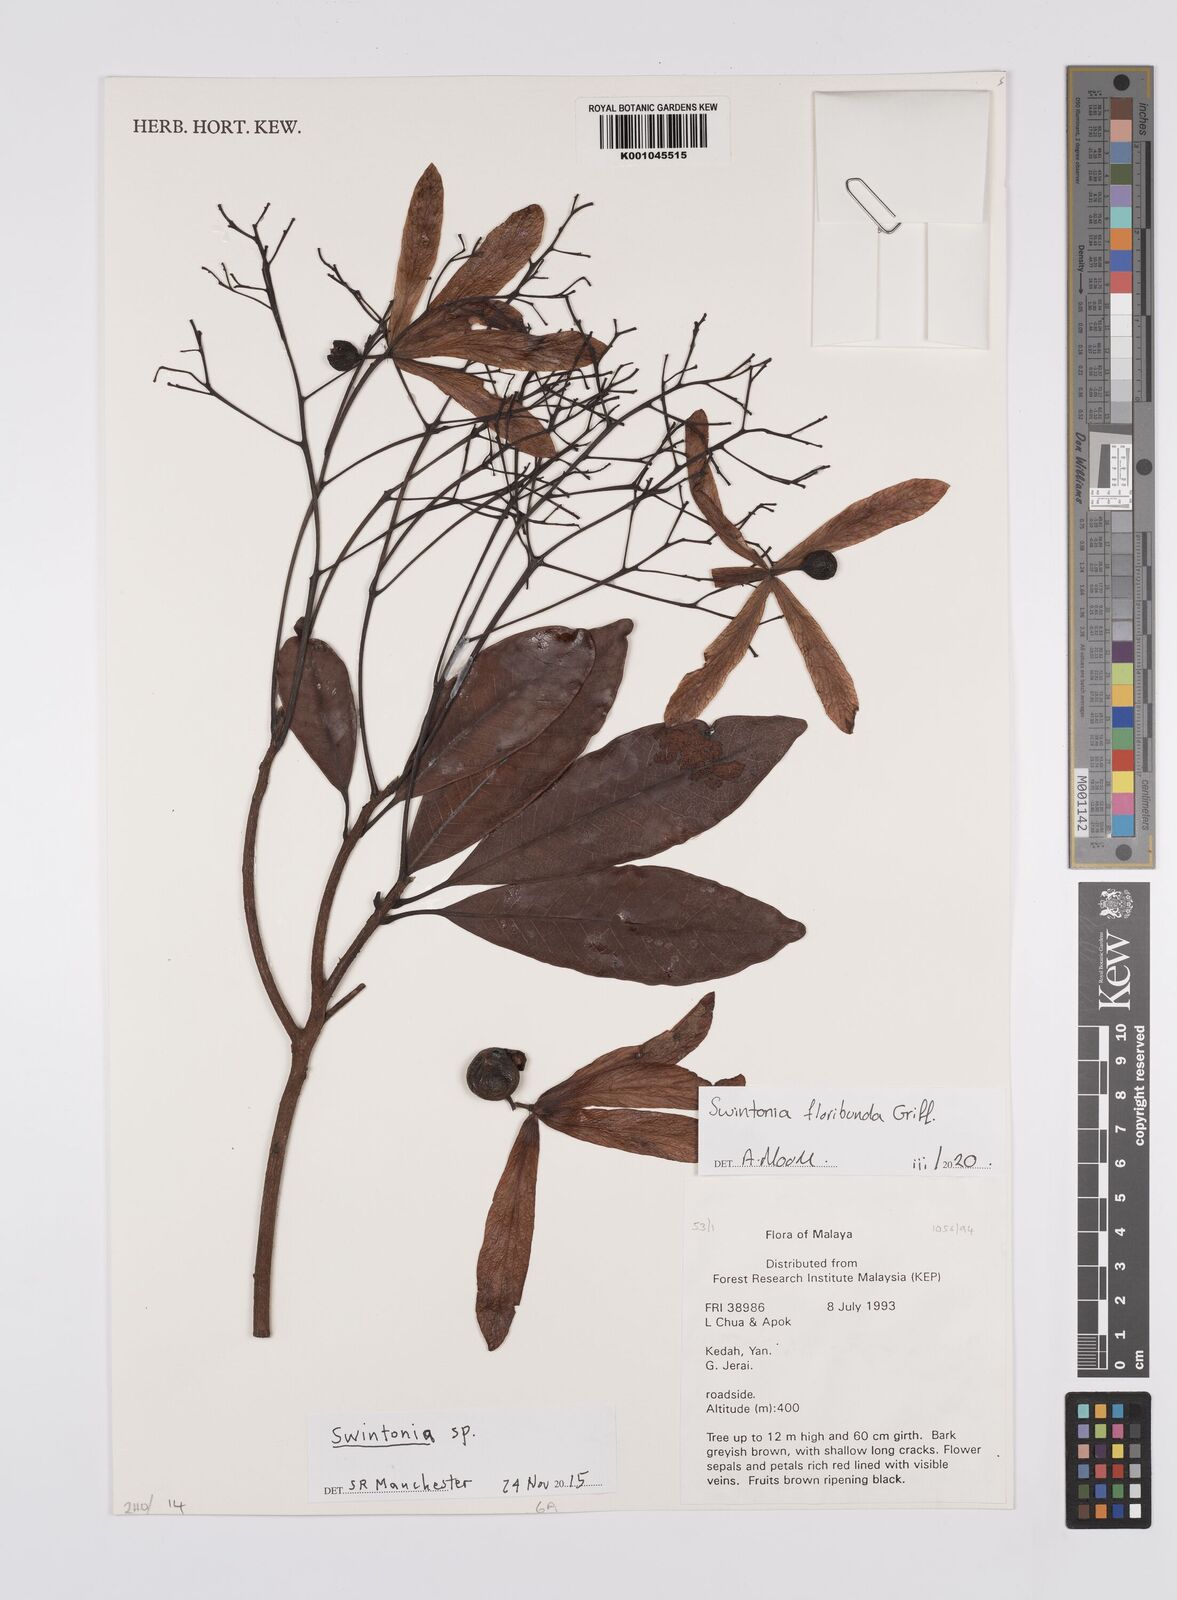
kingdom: Plantae
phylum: Tracheophyta
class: Magnoliopsida
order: Sapindales
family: Anacardiaceae
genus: Swintonia
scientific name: Swintonia
